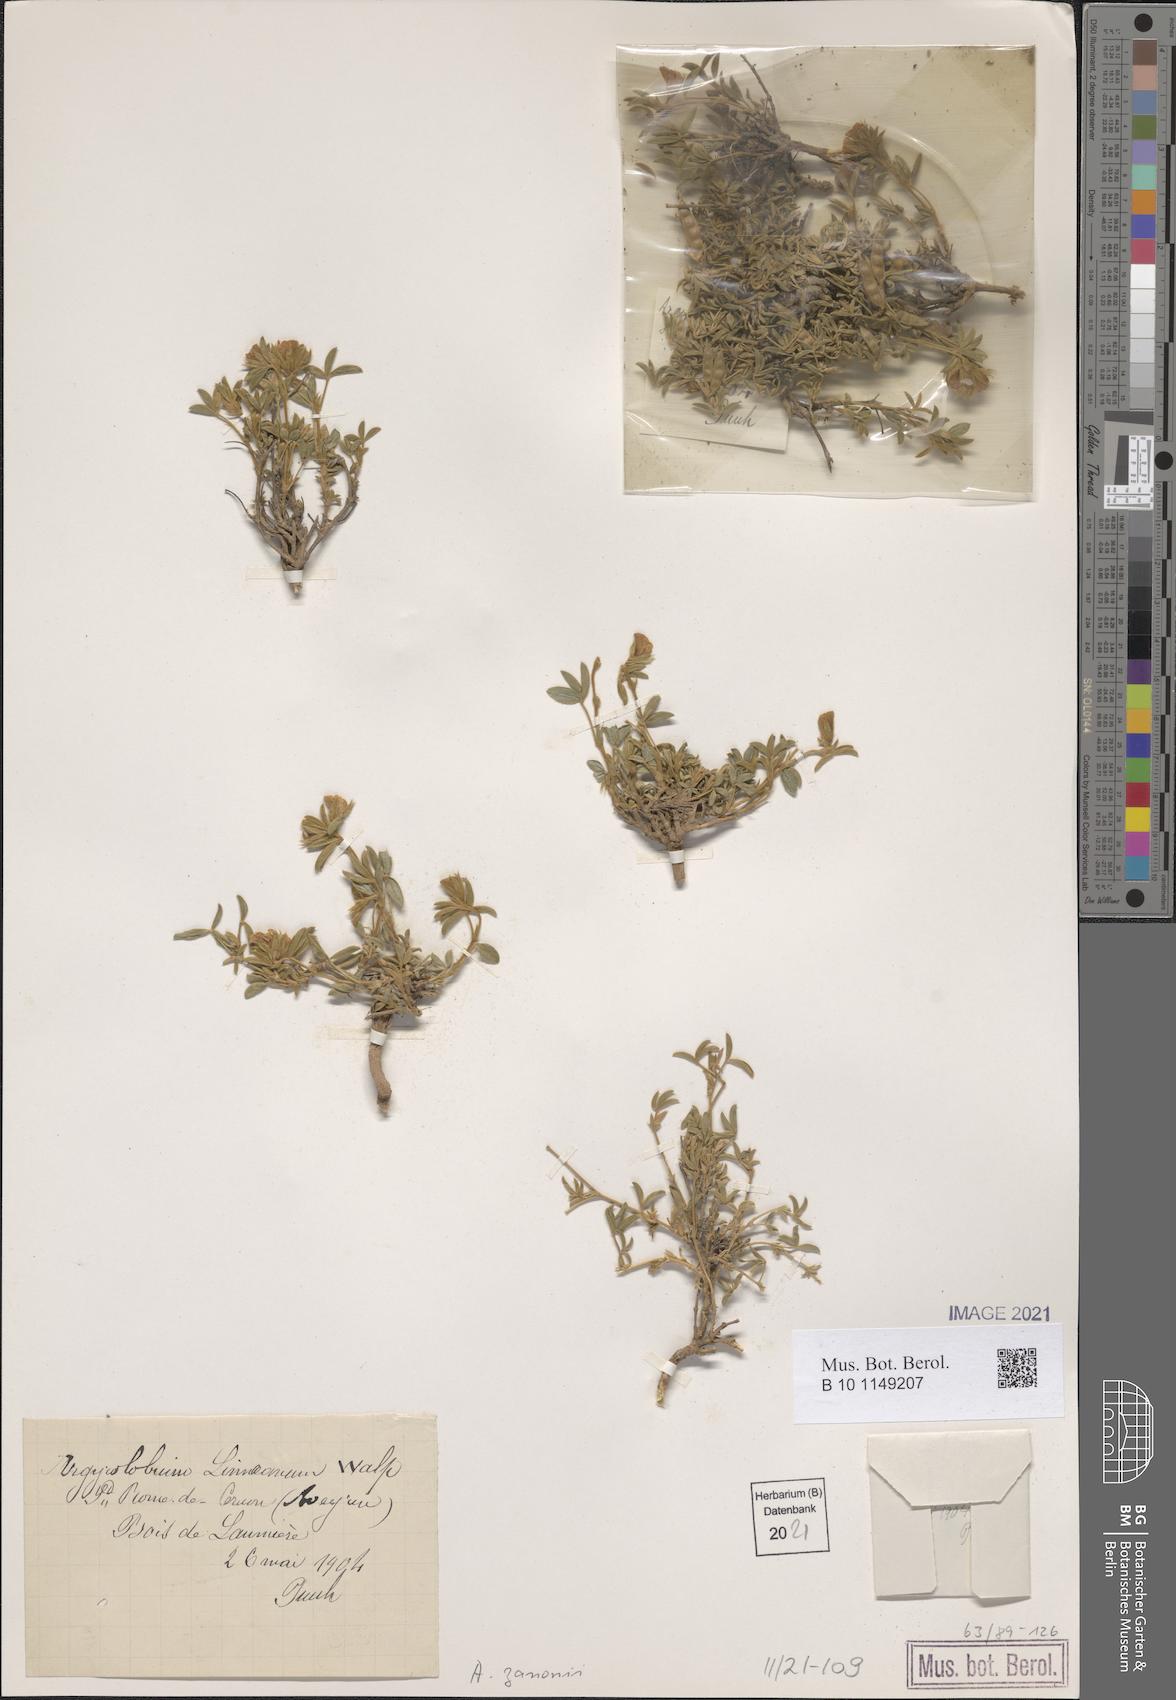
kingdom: Plantae
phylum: Tracheophyta
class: Magnoliopsida
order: Fabales
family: Fabaceae
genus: Argyrolobium
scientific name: Argyrolobium zanonii
